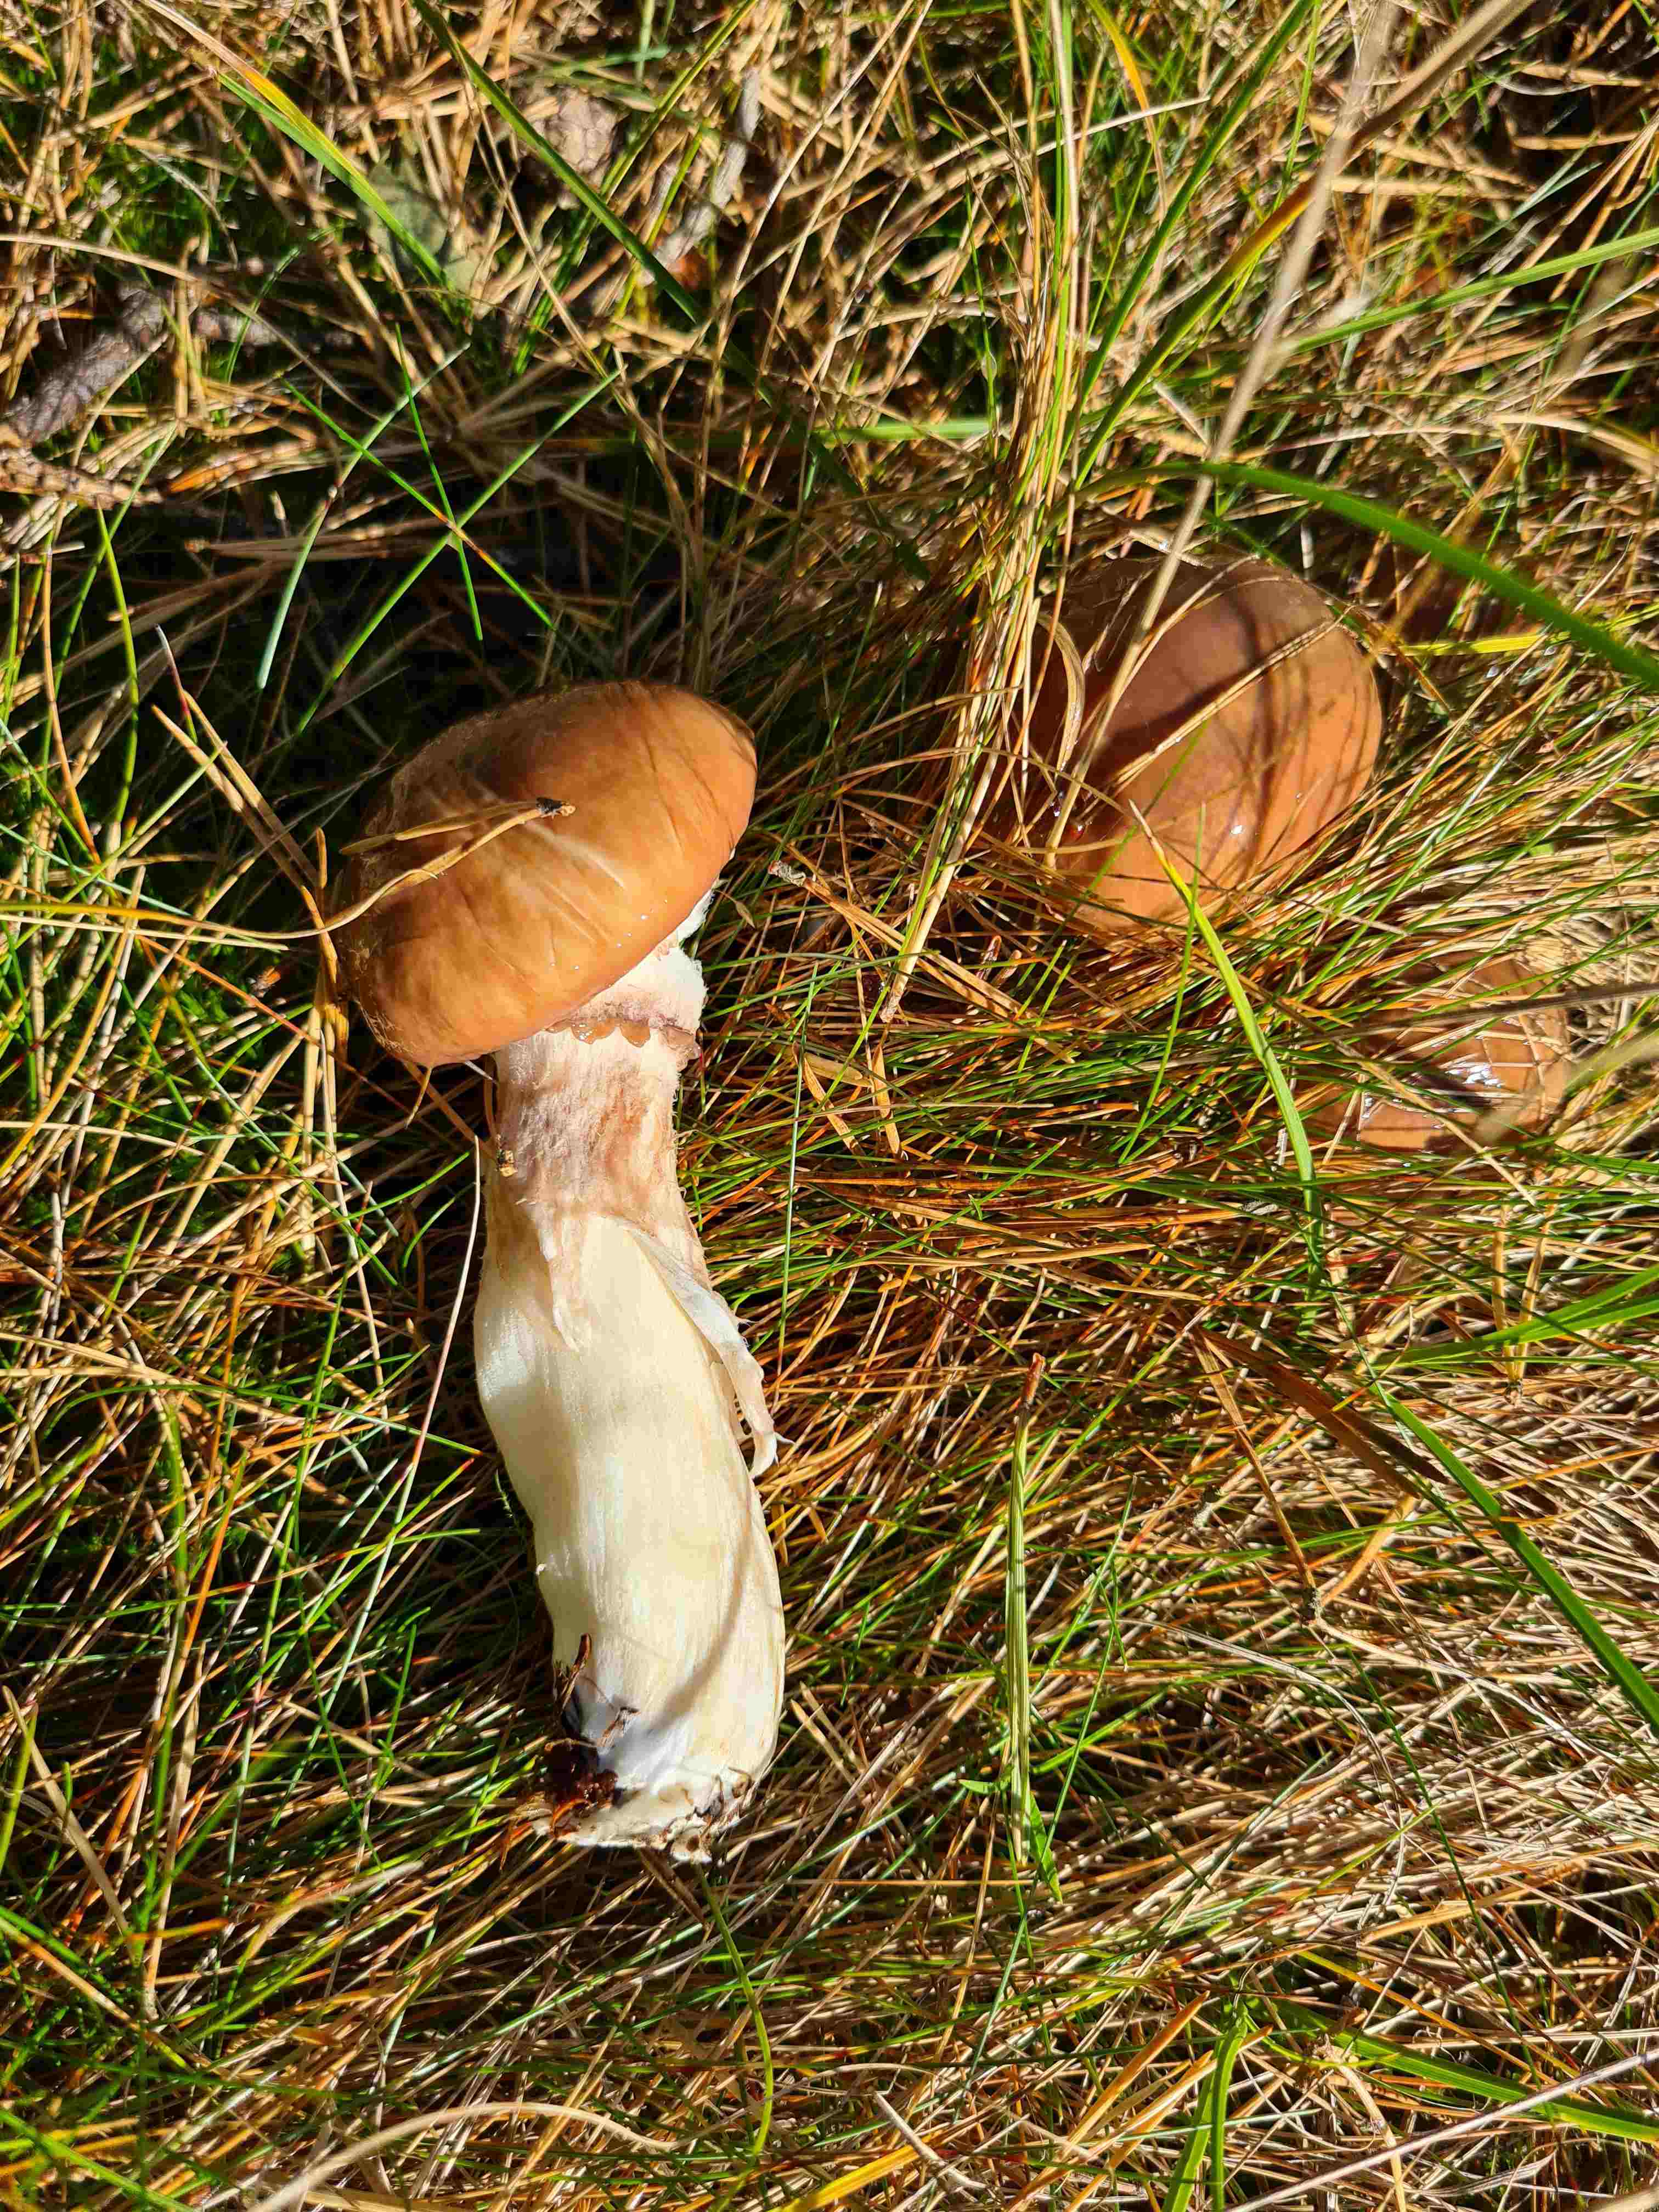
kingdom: Fungi
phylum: Basidiomycota
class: Agaricomycetes
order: Boletales
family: Suillaceae
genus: Suillus
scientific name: Suillus luteus
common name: brungul slimrørhat
